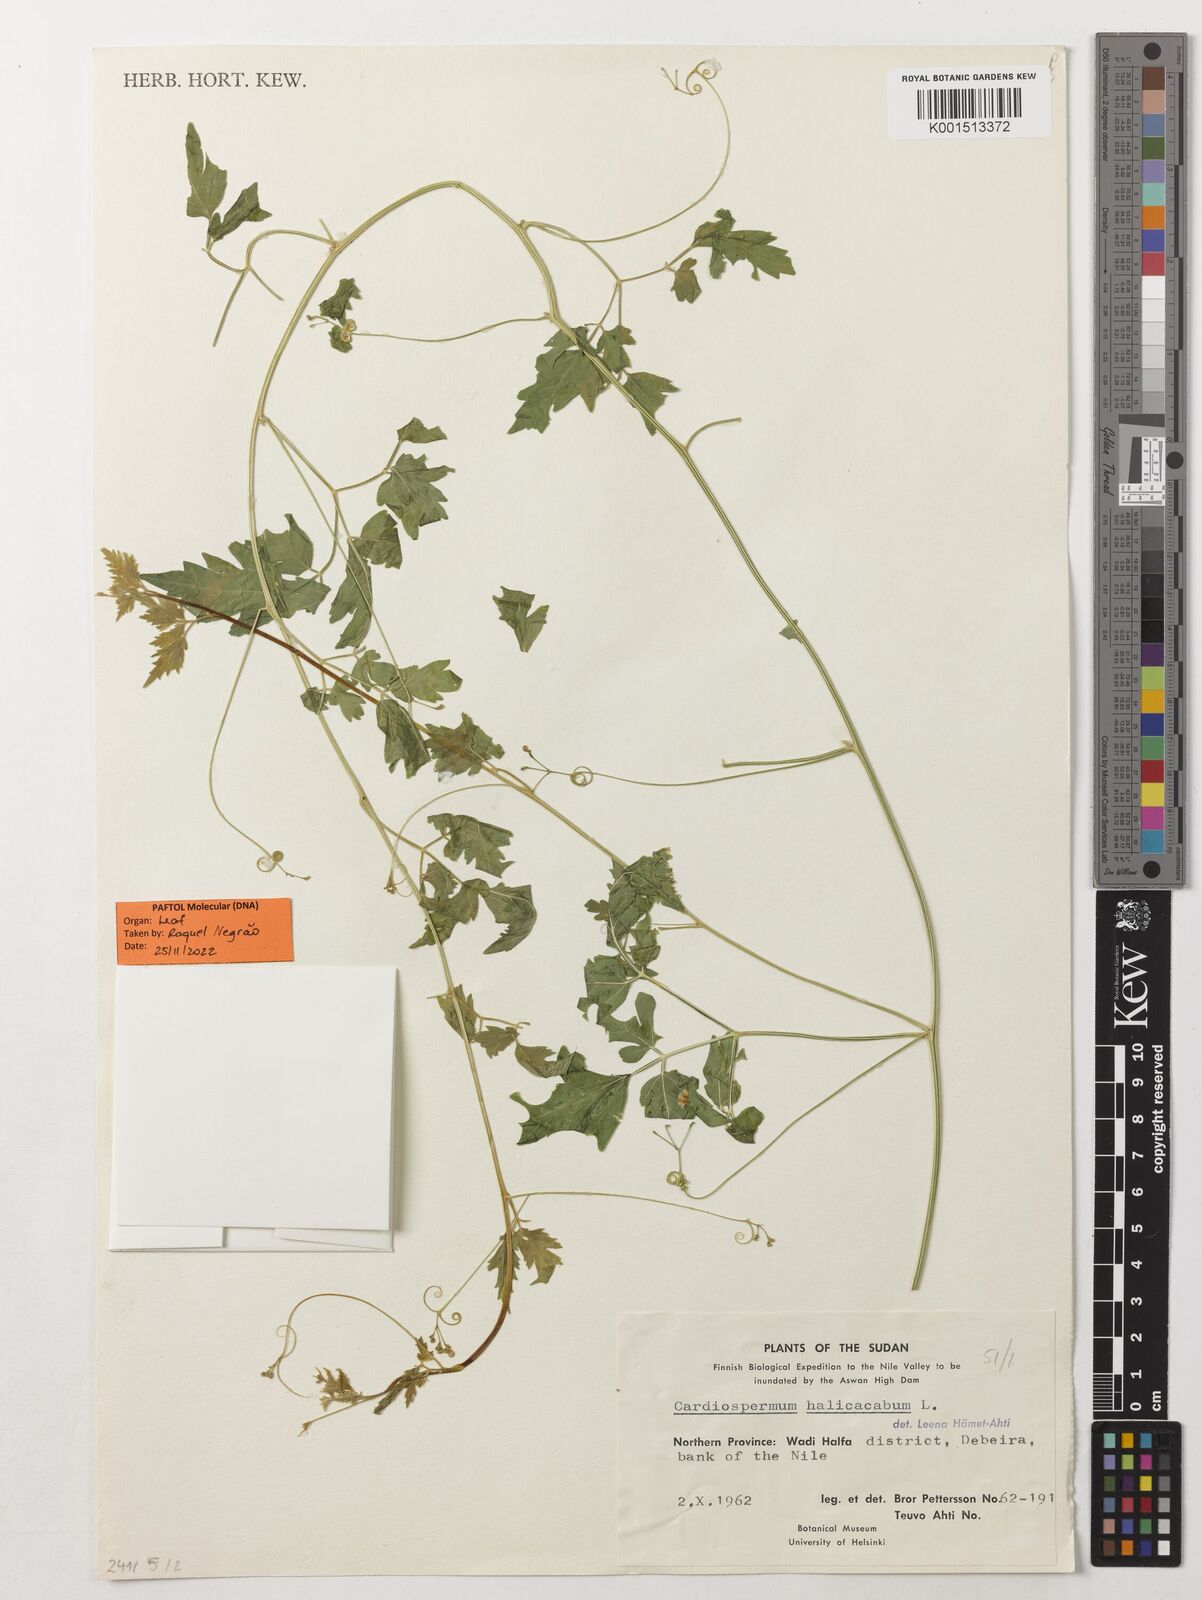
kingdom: Plantae
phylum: Tracheophyta
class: Magnoliopsida
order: Sapindales
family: Sapindaceae
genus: Cardiospermum
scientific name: Cardiospermum halicacabum
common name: Balloon vine
